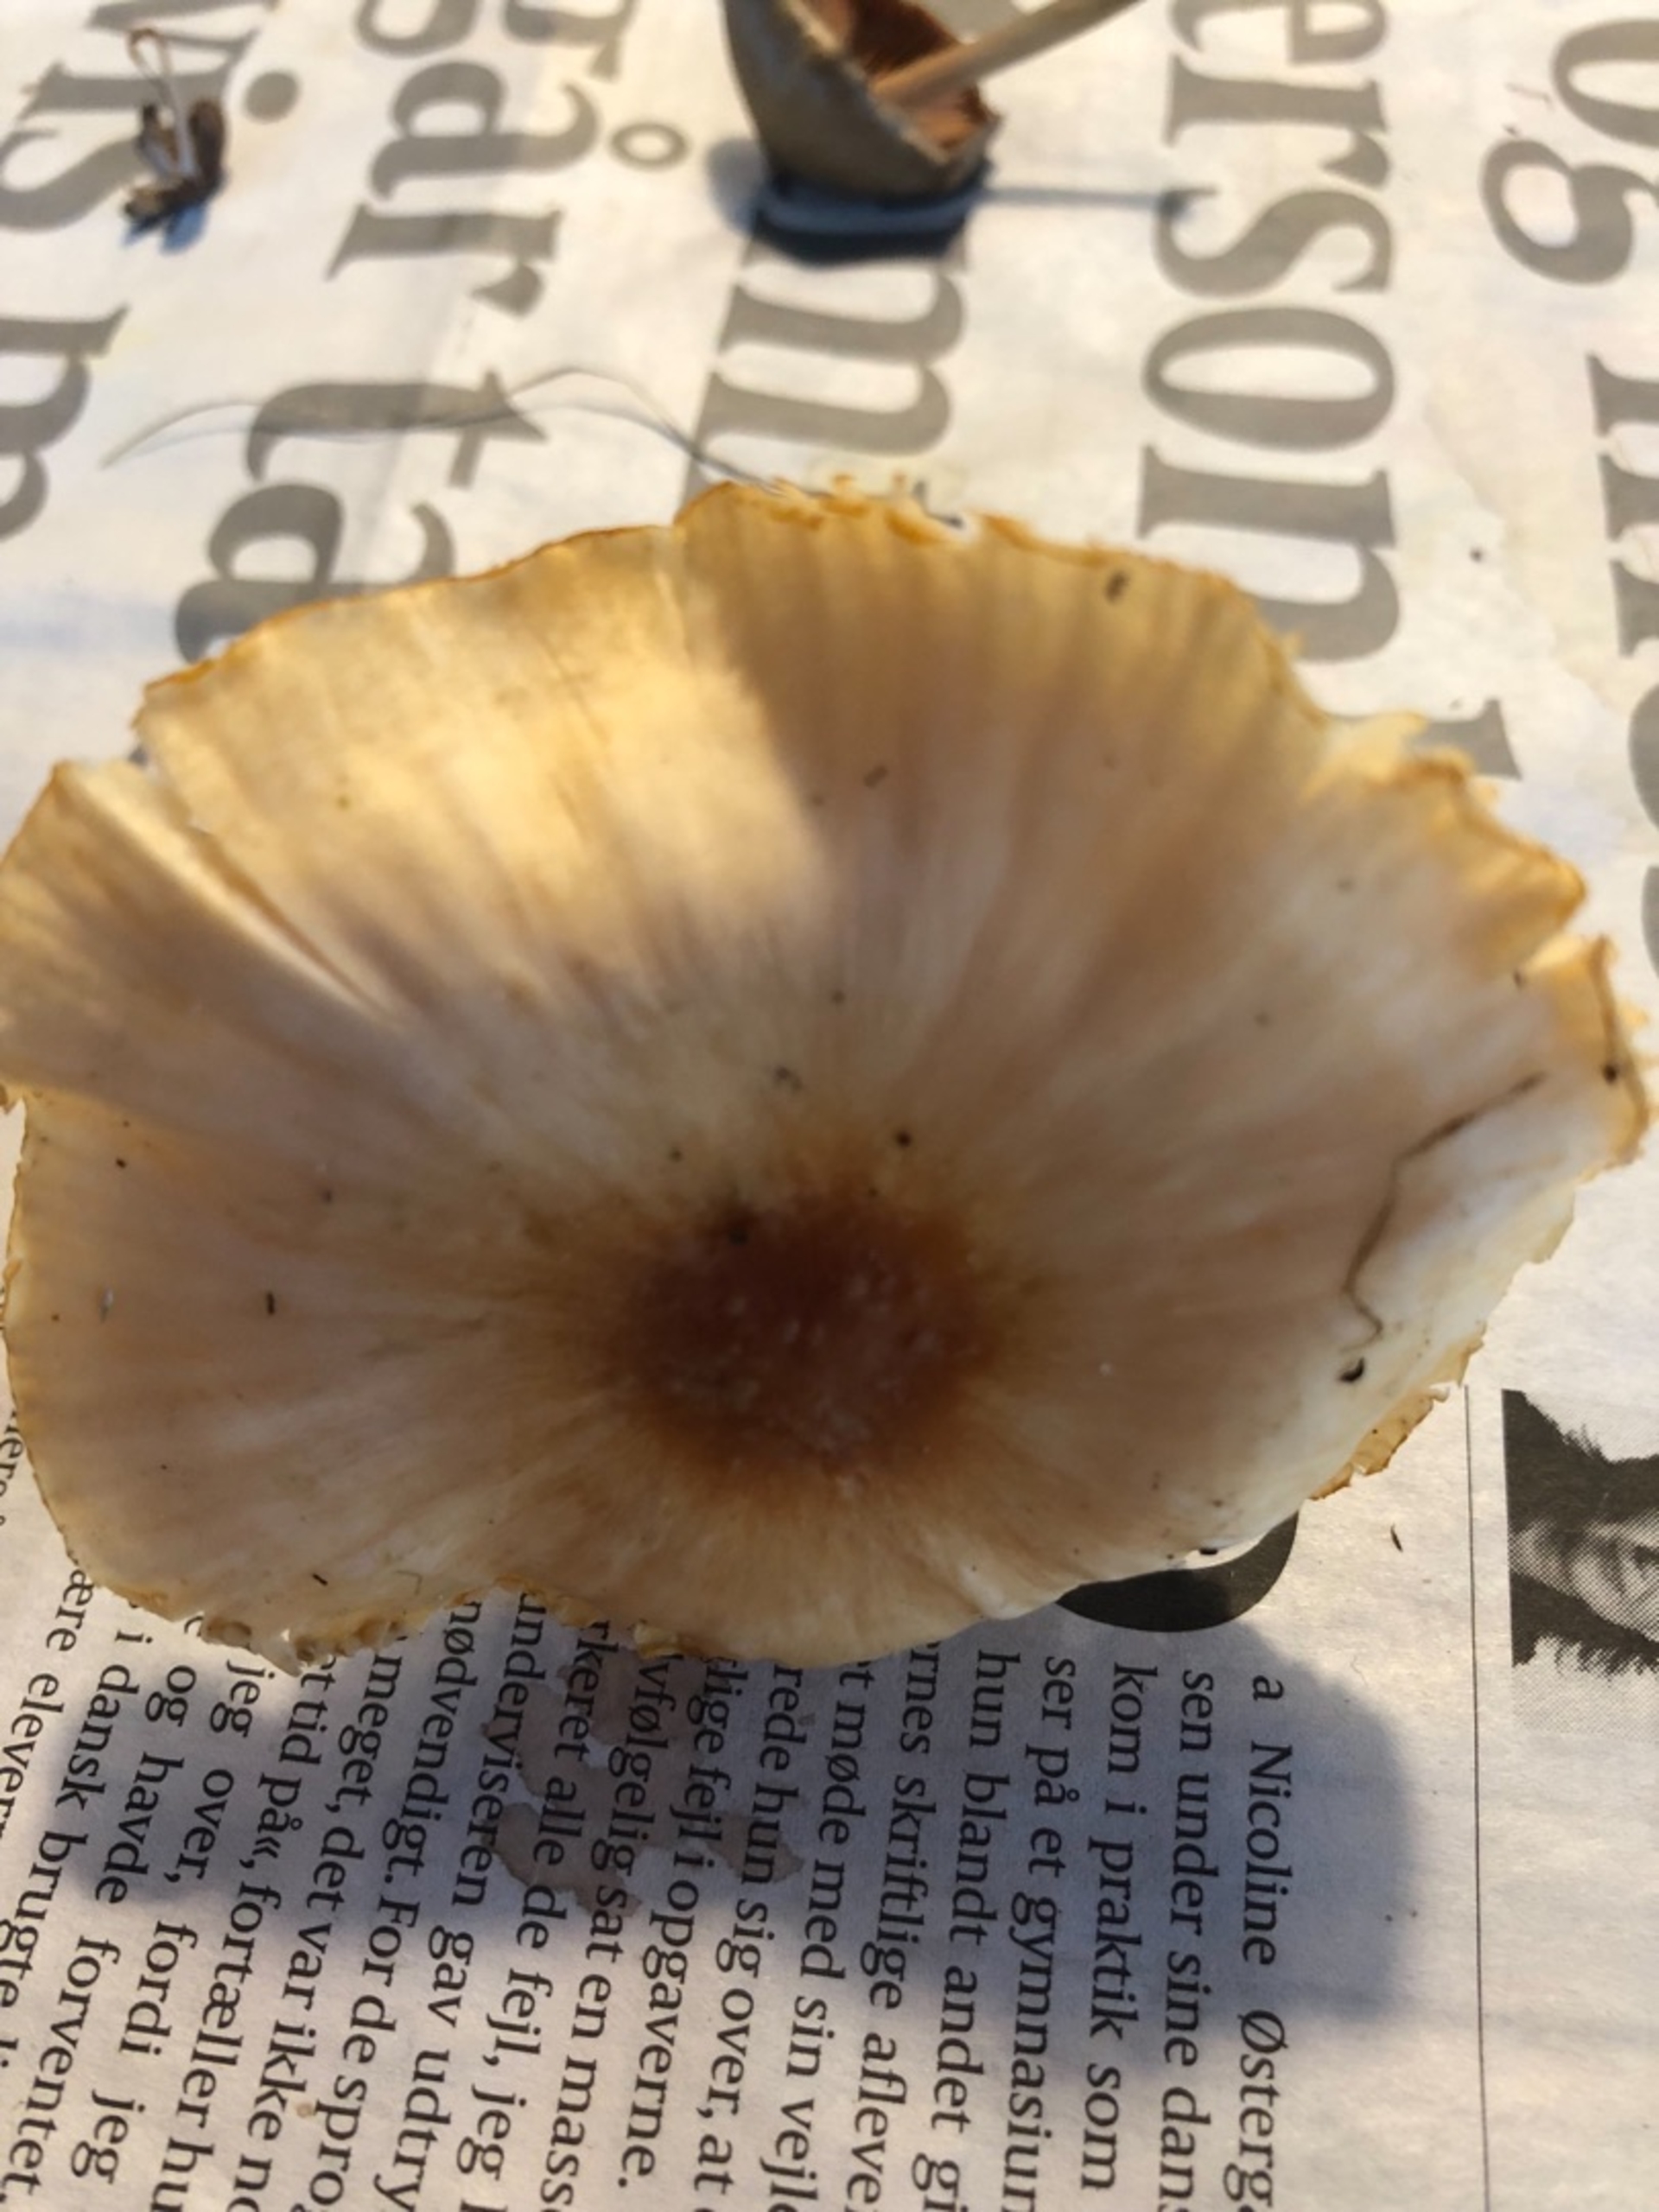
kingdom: Fungi
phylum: Basidiomycota
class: Agaricomycetes
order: Agaricales
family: Hygrophoraceae
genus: Cuphophyllus
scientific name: Cuphophyllus pratensis
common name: Eng-vokshat
